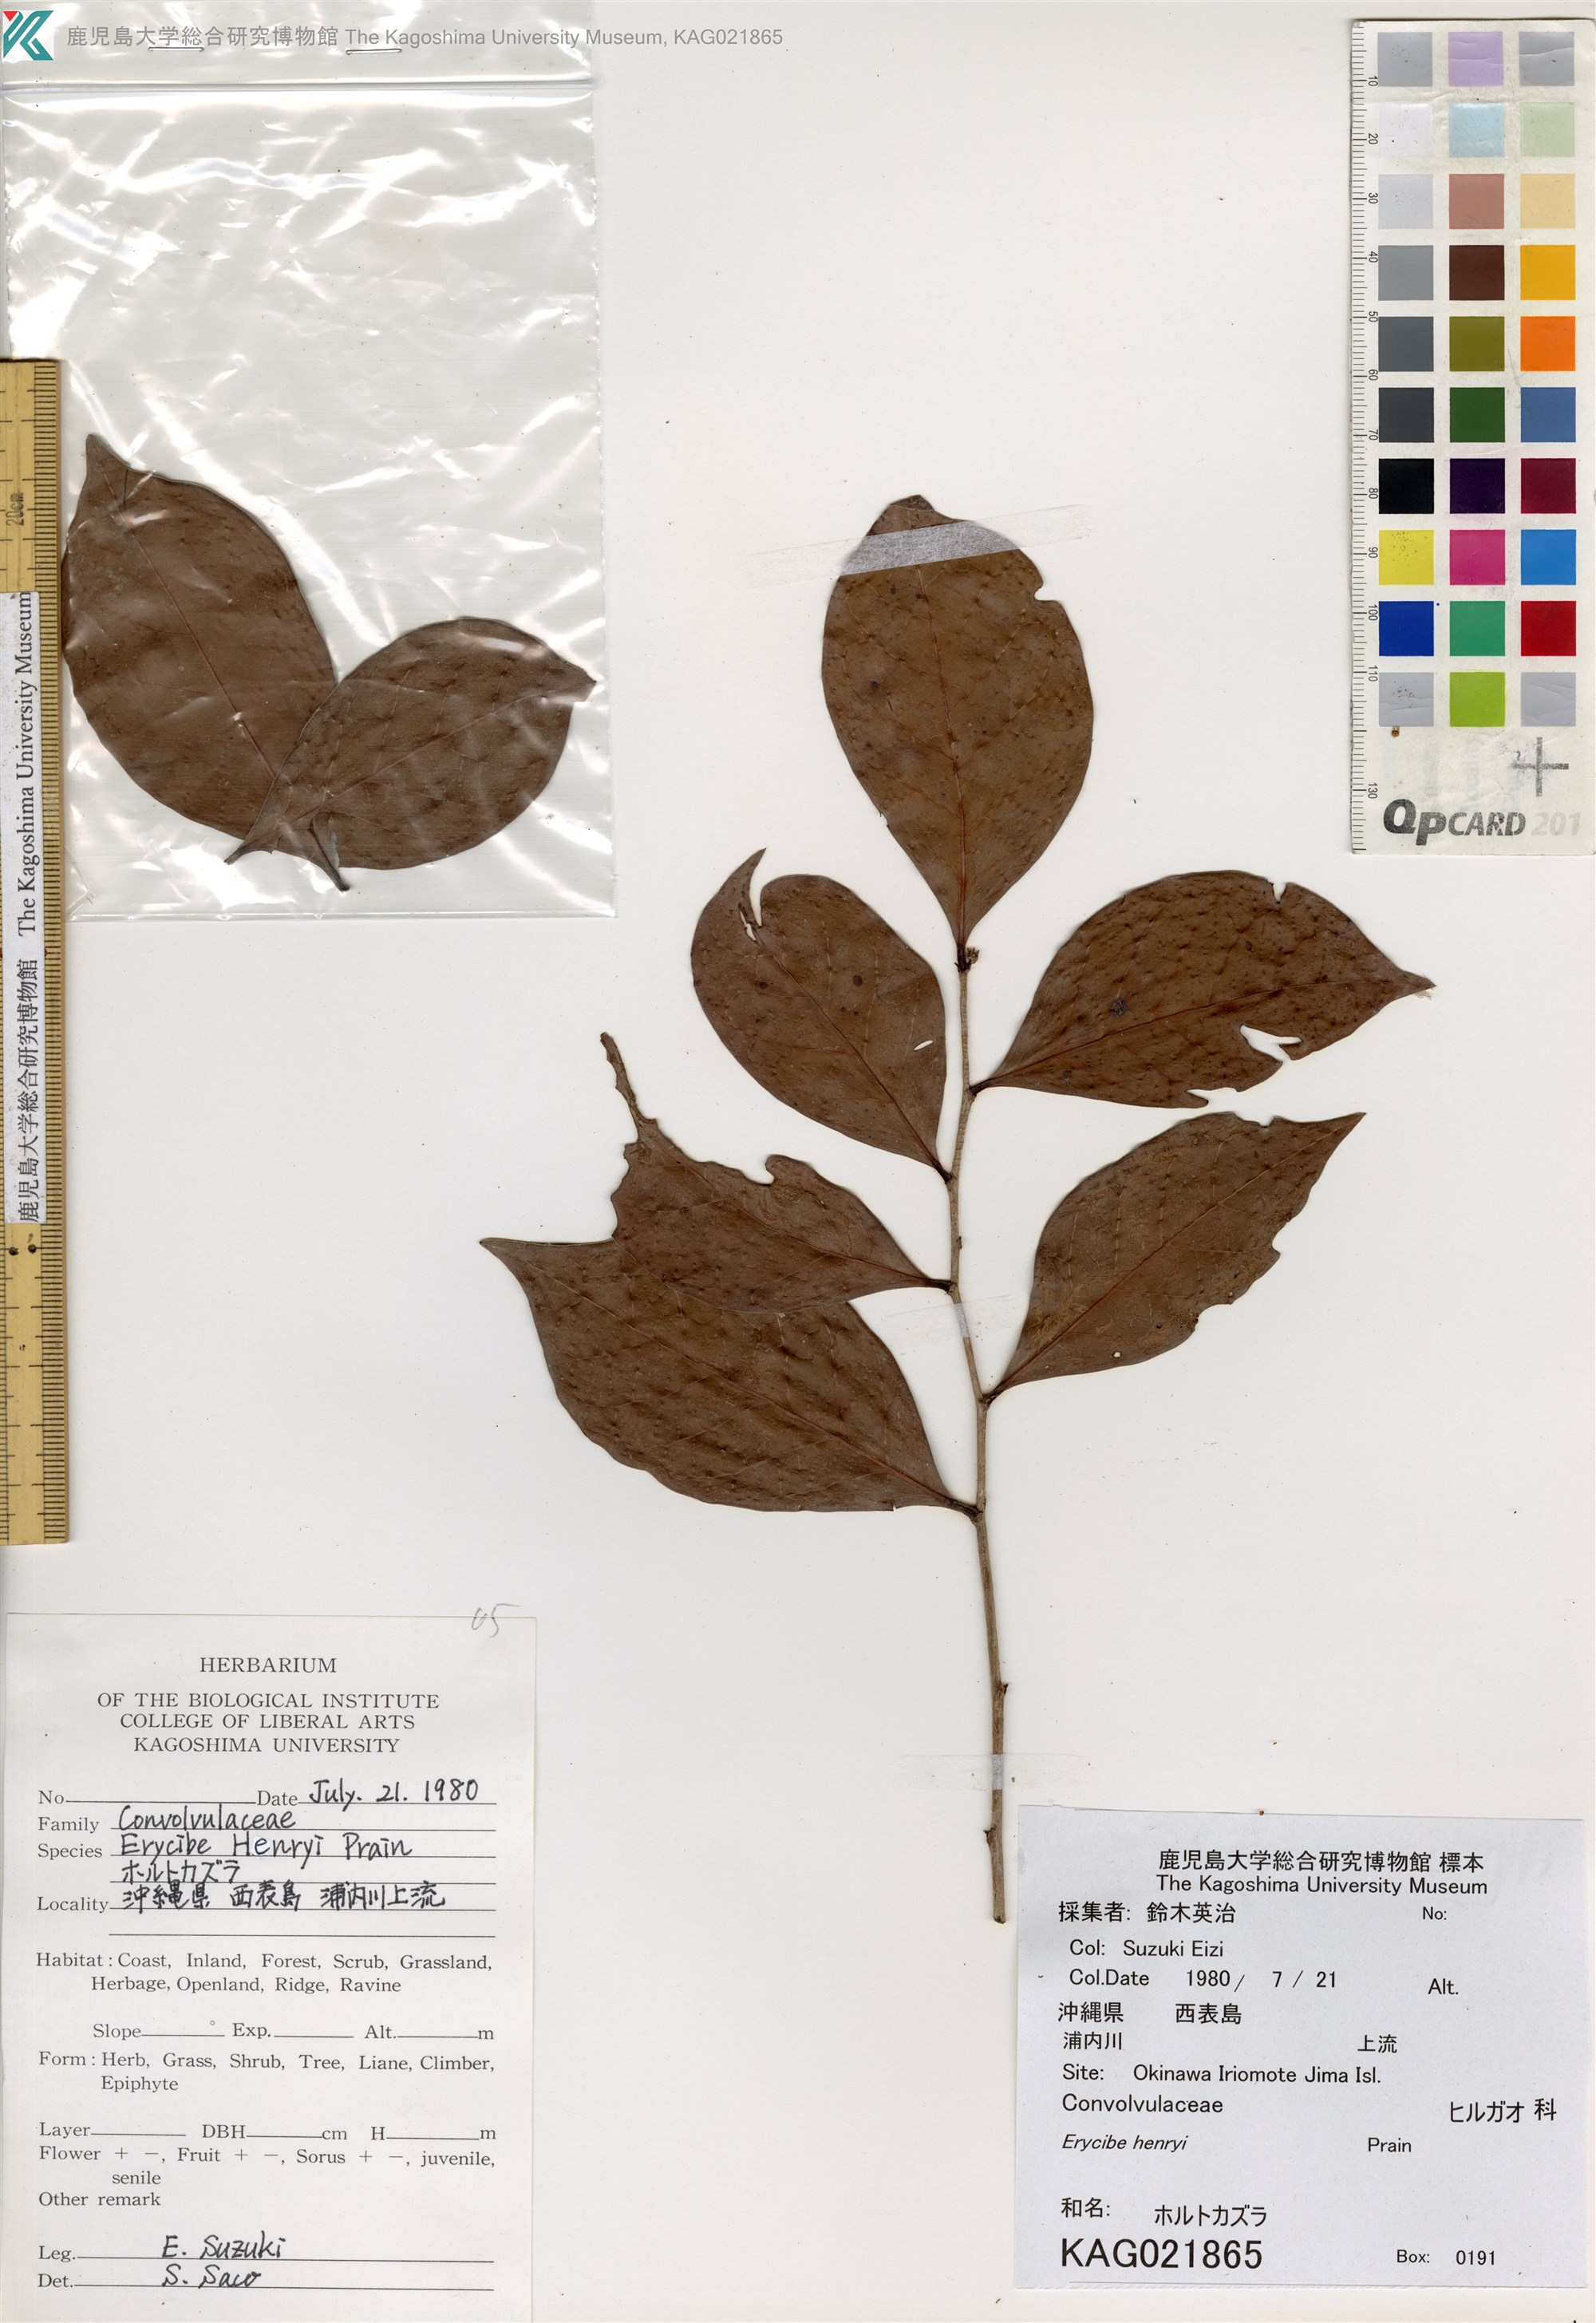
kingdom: Plantae
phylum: Tracheophyta
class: Magnoliopsida
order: Solanales
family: Convolvulaceae
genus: Erycibe
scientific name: Erycibe henryi
